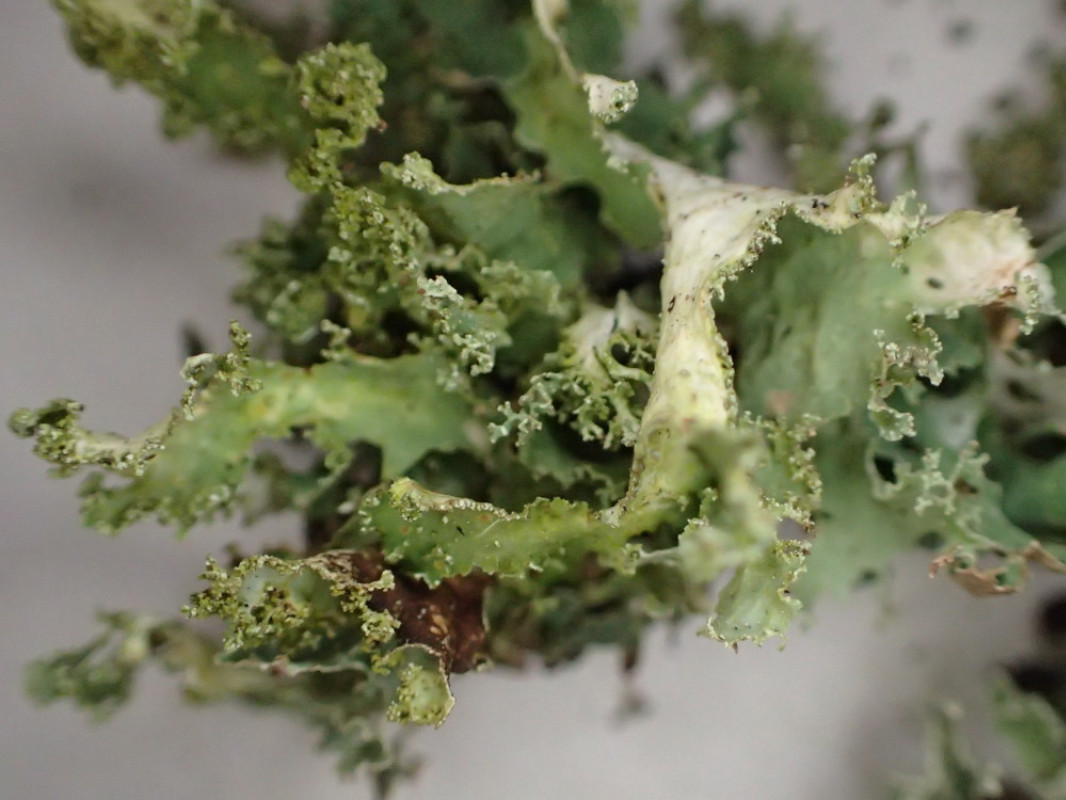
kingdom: Fungi
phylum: Ascomycota
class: Lecanoromycetes
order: Lecanorales
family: Parmeliaceae
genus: Platismatia
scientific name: Platismatia glauca
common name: blågrå papirlav
